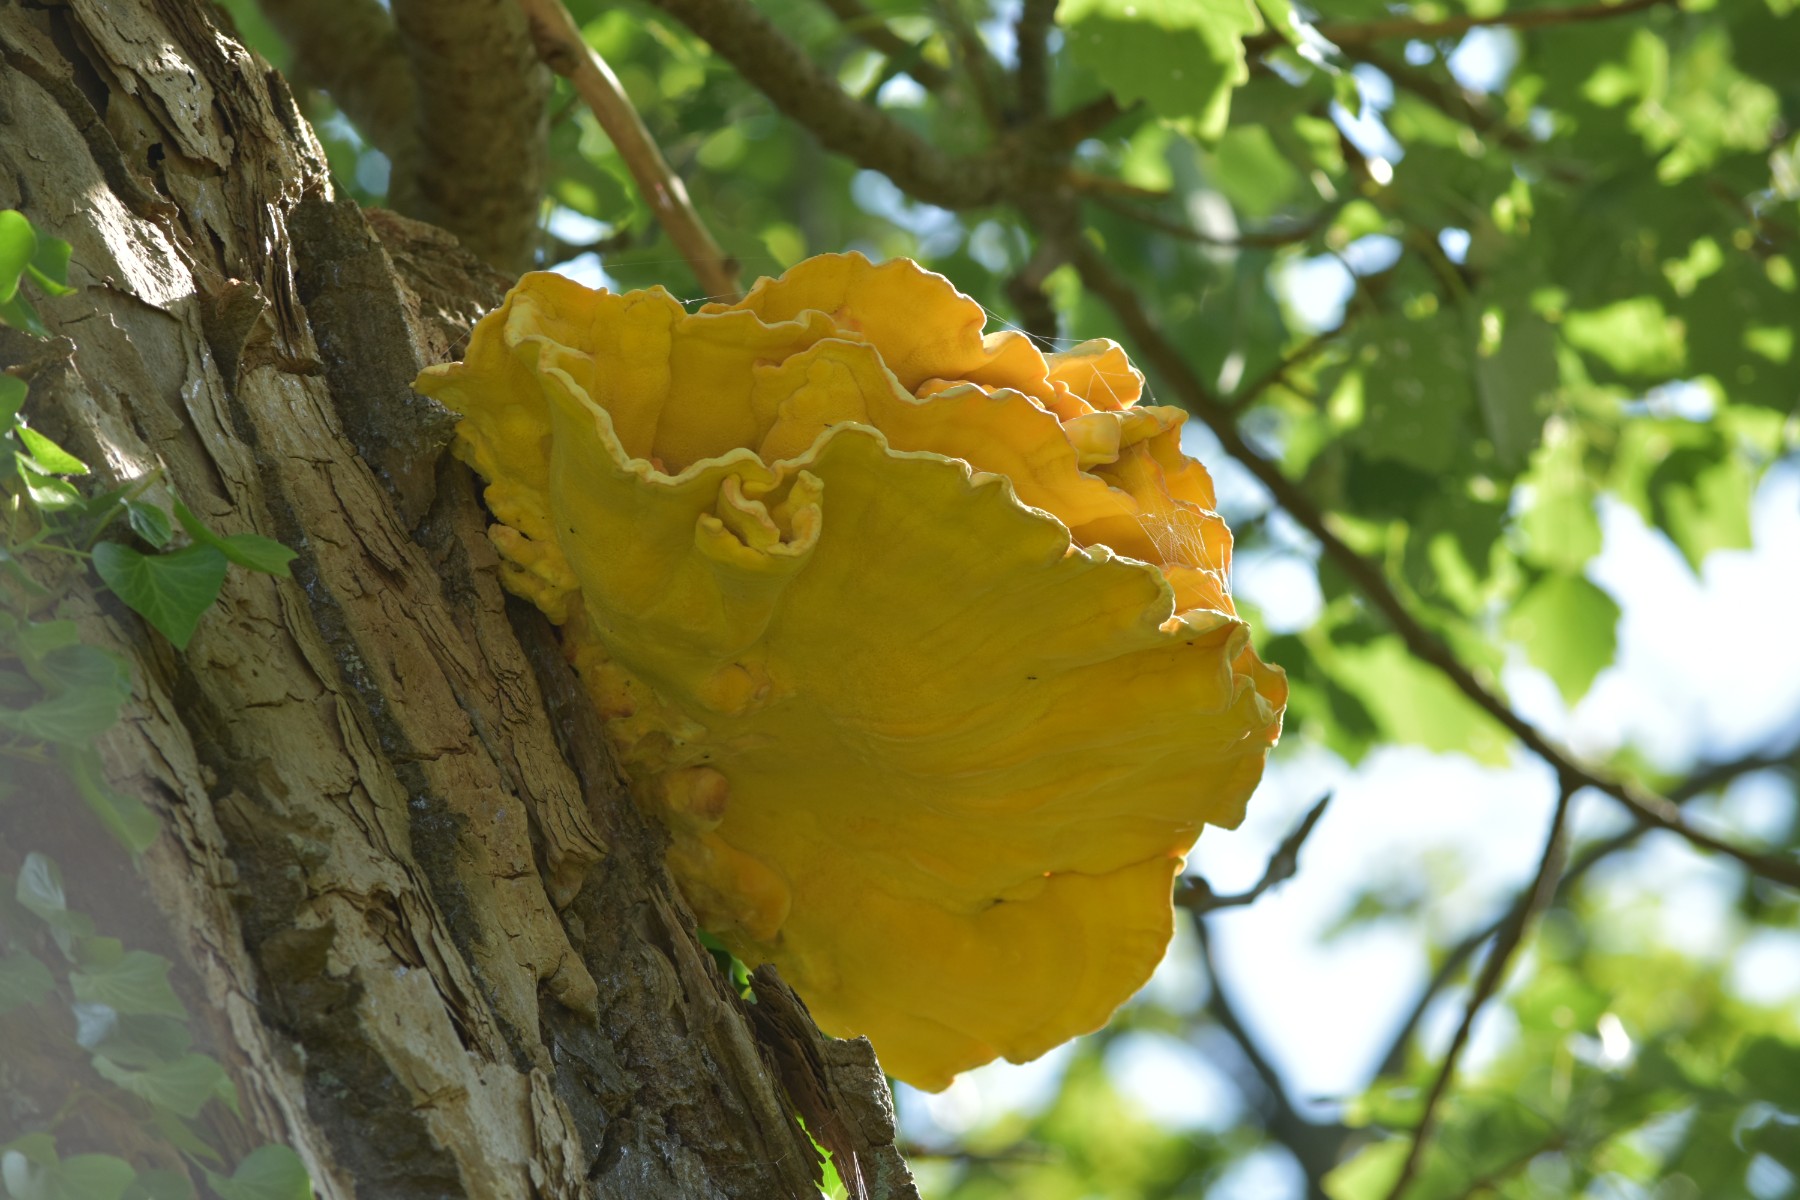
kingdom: Fungi
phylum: Basidiomycota
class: Agaricomycetes
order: Polyporales
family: Laetiporaceae
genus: Laetiporus
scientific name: Laetiporus sulphureus
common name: svovlporesvamp
